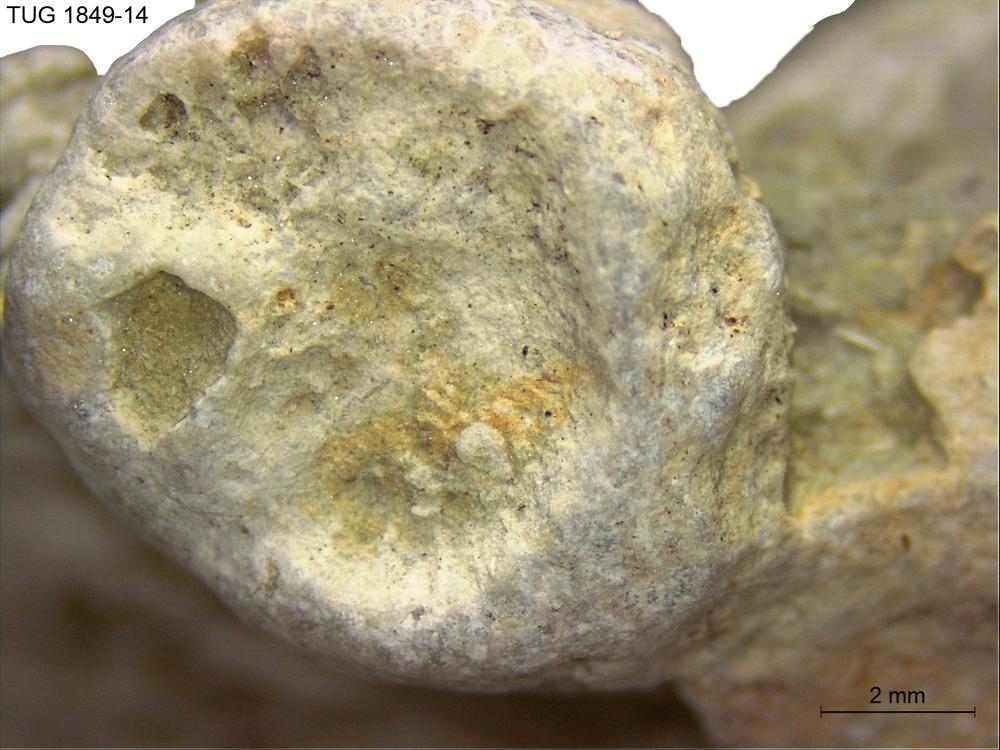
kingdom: Animalia
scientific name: Animalia
